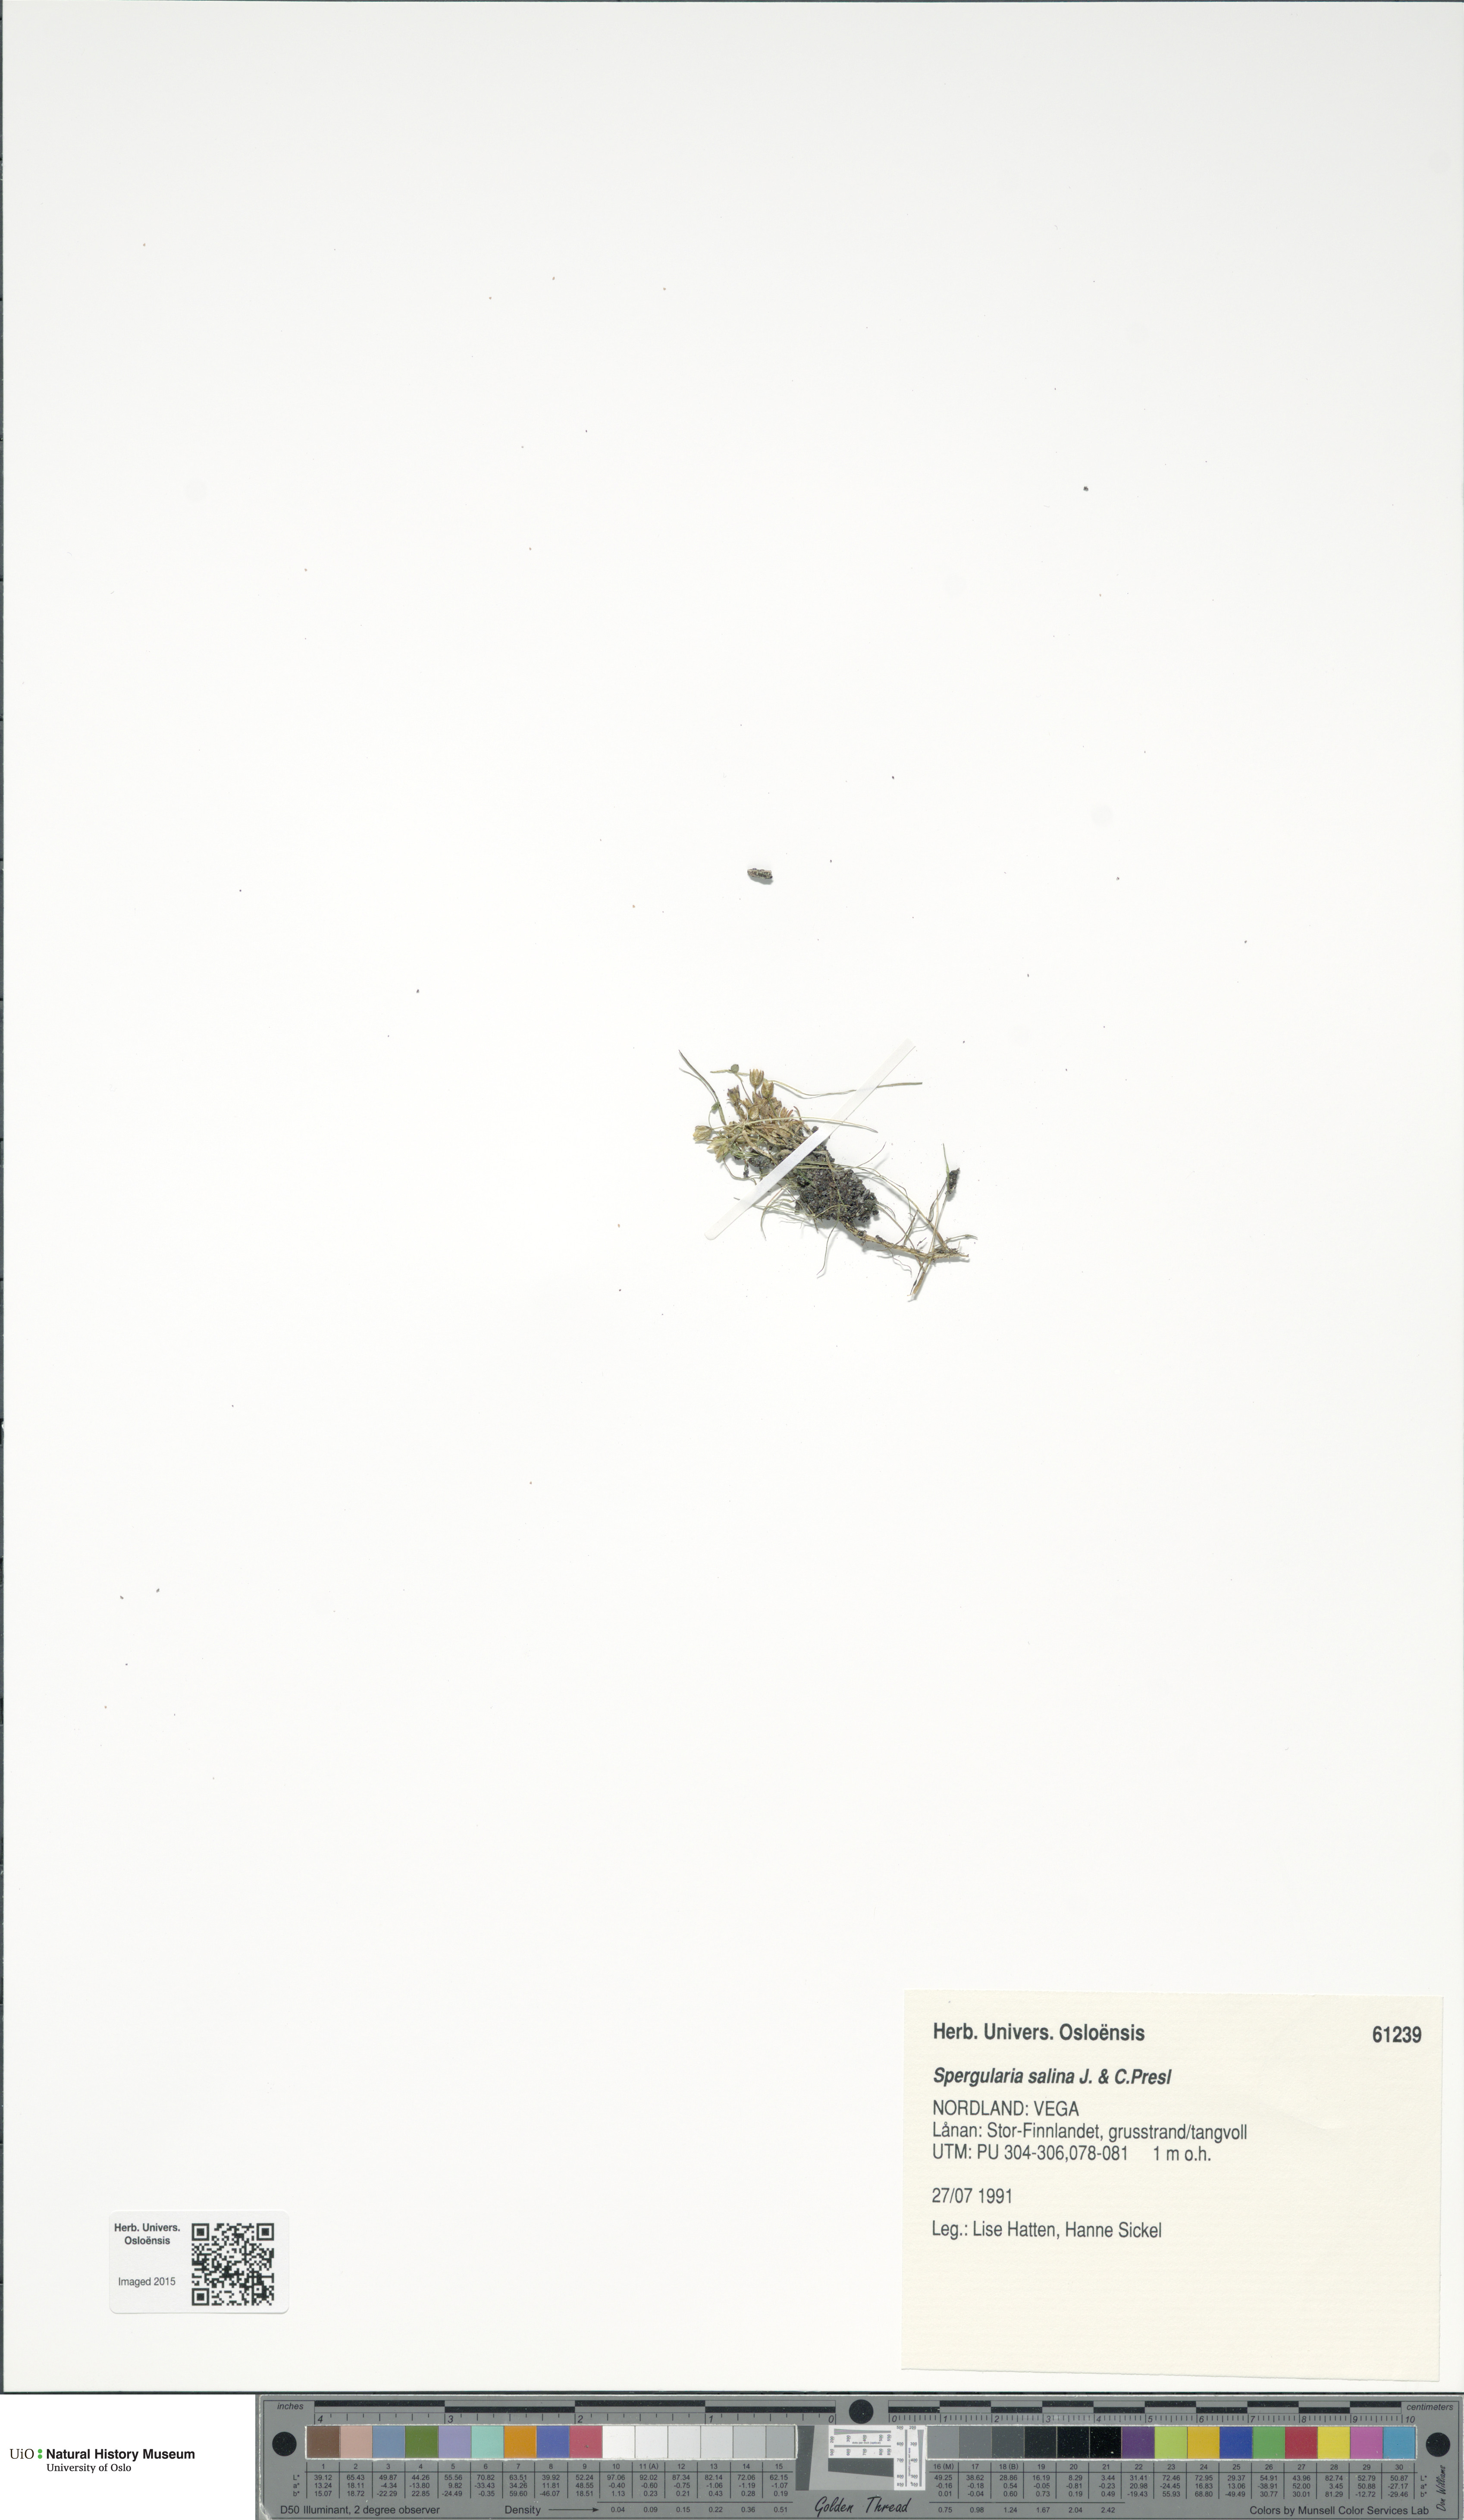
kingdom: Plantae
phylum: Tracheophyta
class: Magnoliopsida
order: Caryophyllales
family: Caryophyllaceae
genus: Spergularia
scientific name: Spergularia marina
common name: Lesser sea-spurrey
